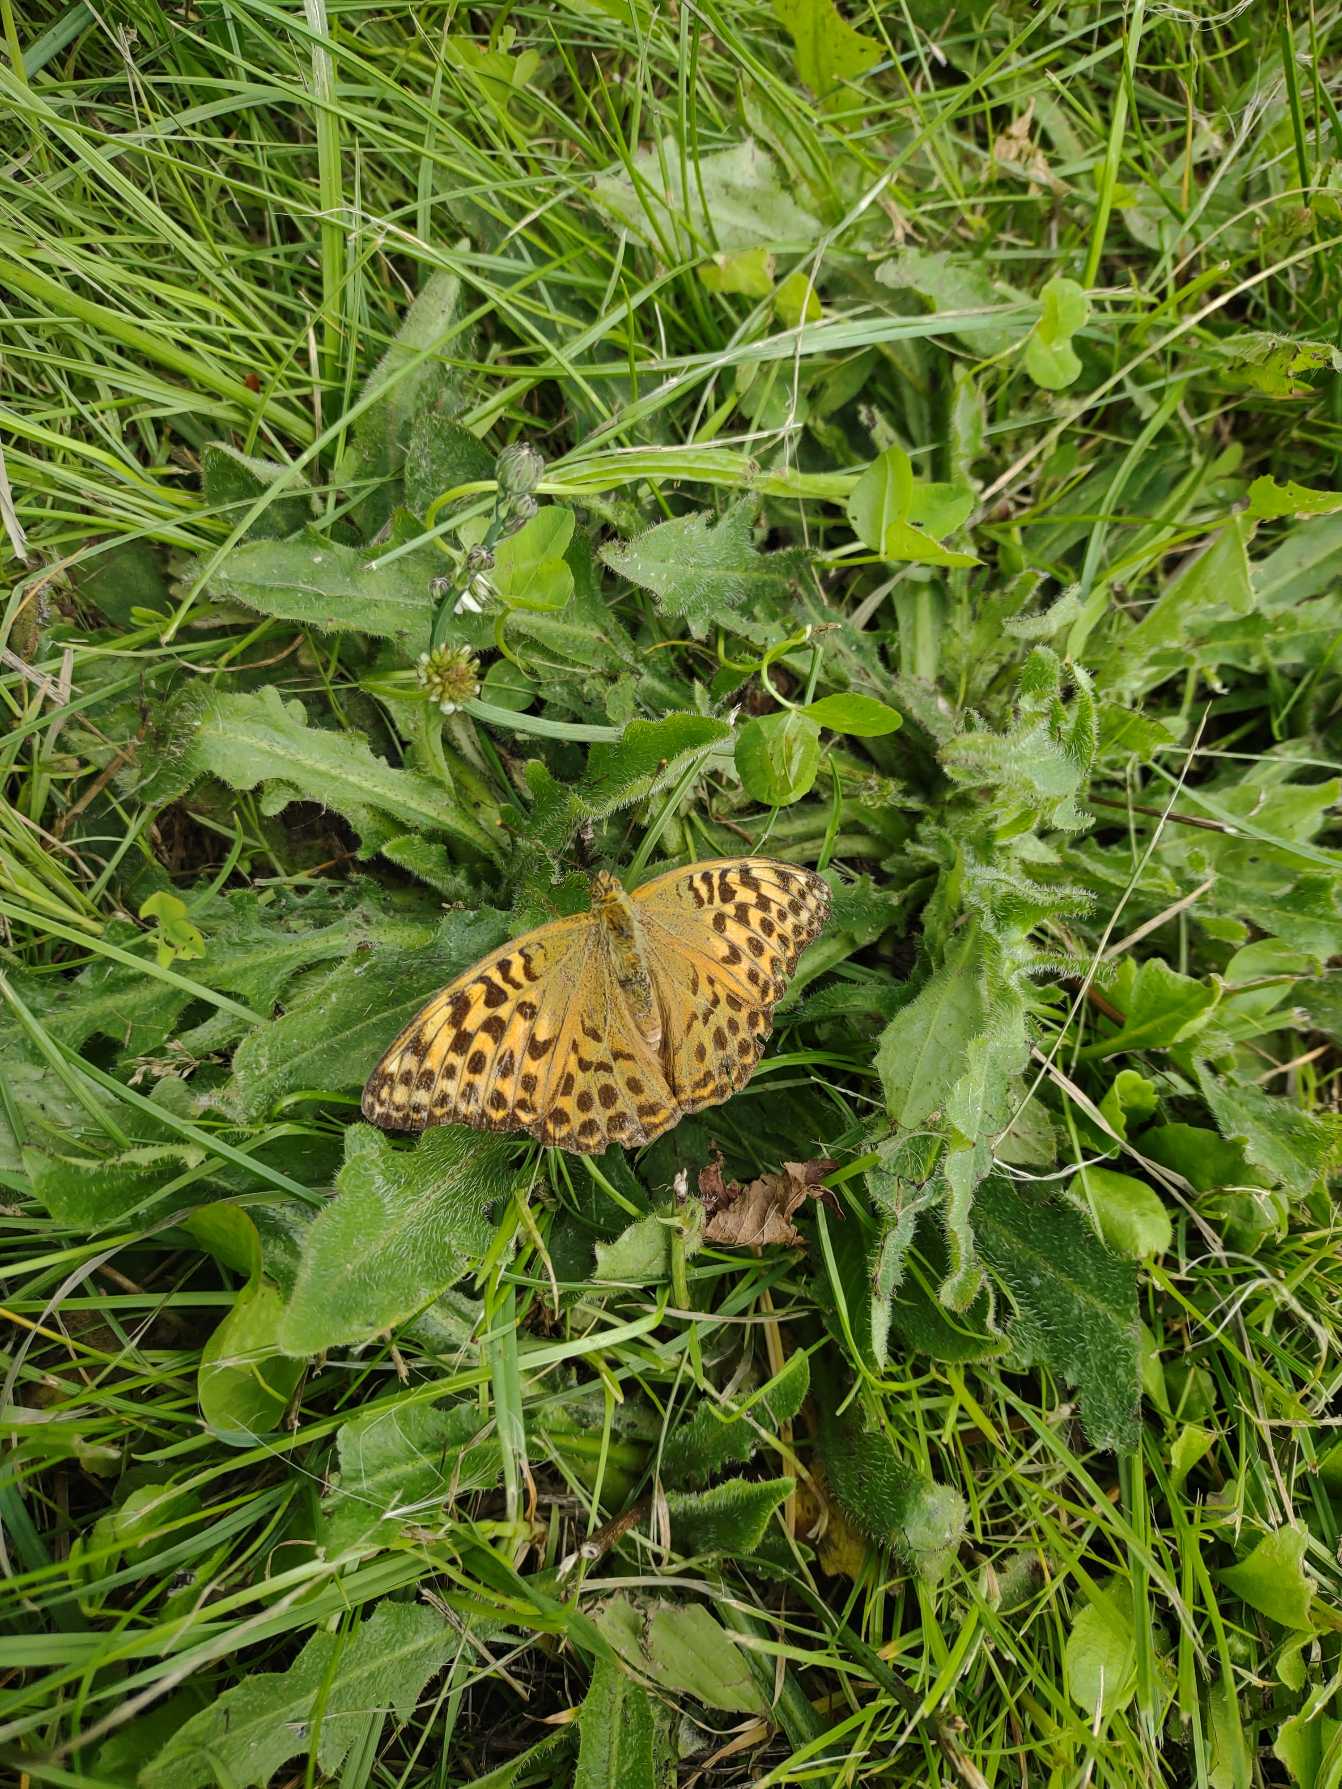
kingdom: Animalia
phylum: Arthropoda
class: Insecta
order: Lepidoptera
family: Nymphalidae
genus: Argynnis
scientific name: Argynnis paphia
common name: Kejserkåbe
